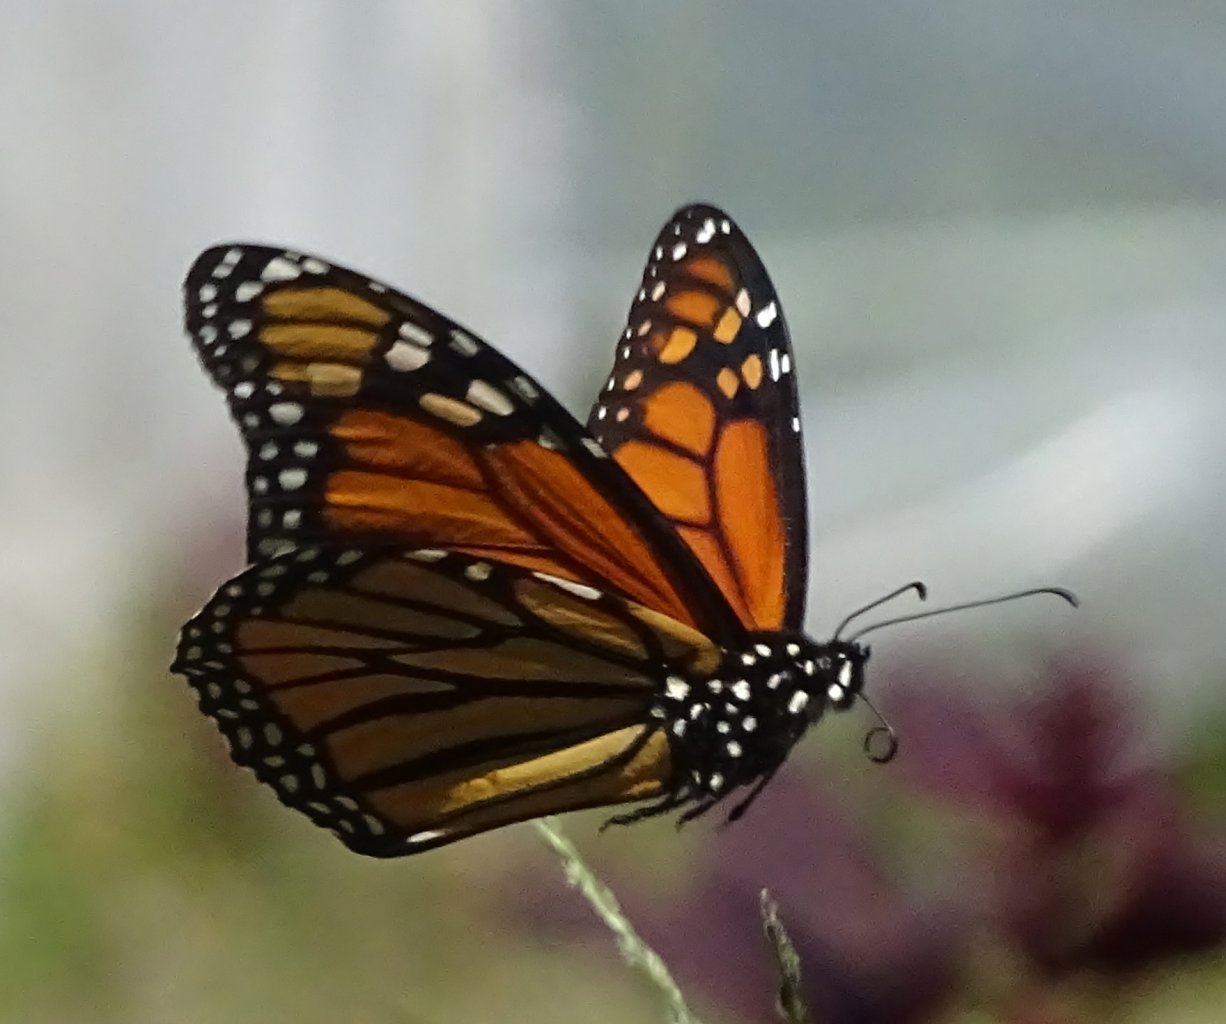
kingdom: Animalia
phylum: Arthropoda
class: Insecta
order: Lepidoptera
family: Nymphalidae
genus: Danaus
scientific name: Danaus plexippus
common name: Monarch
